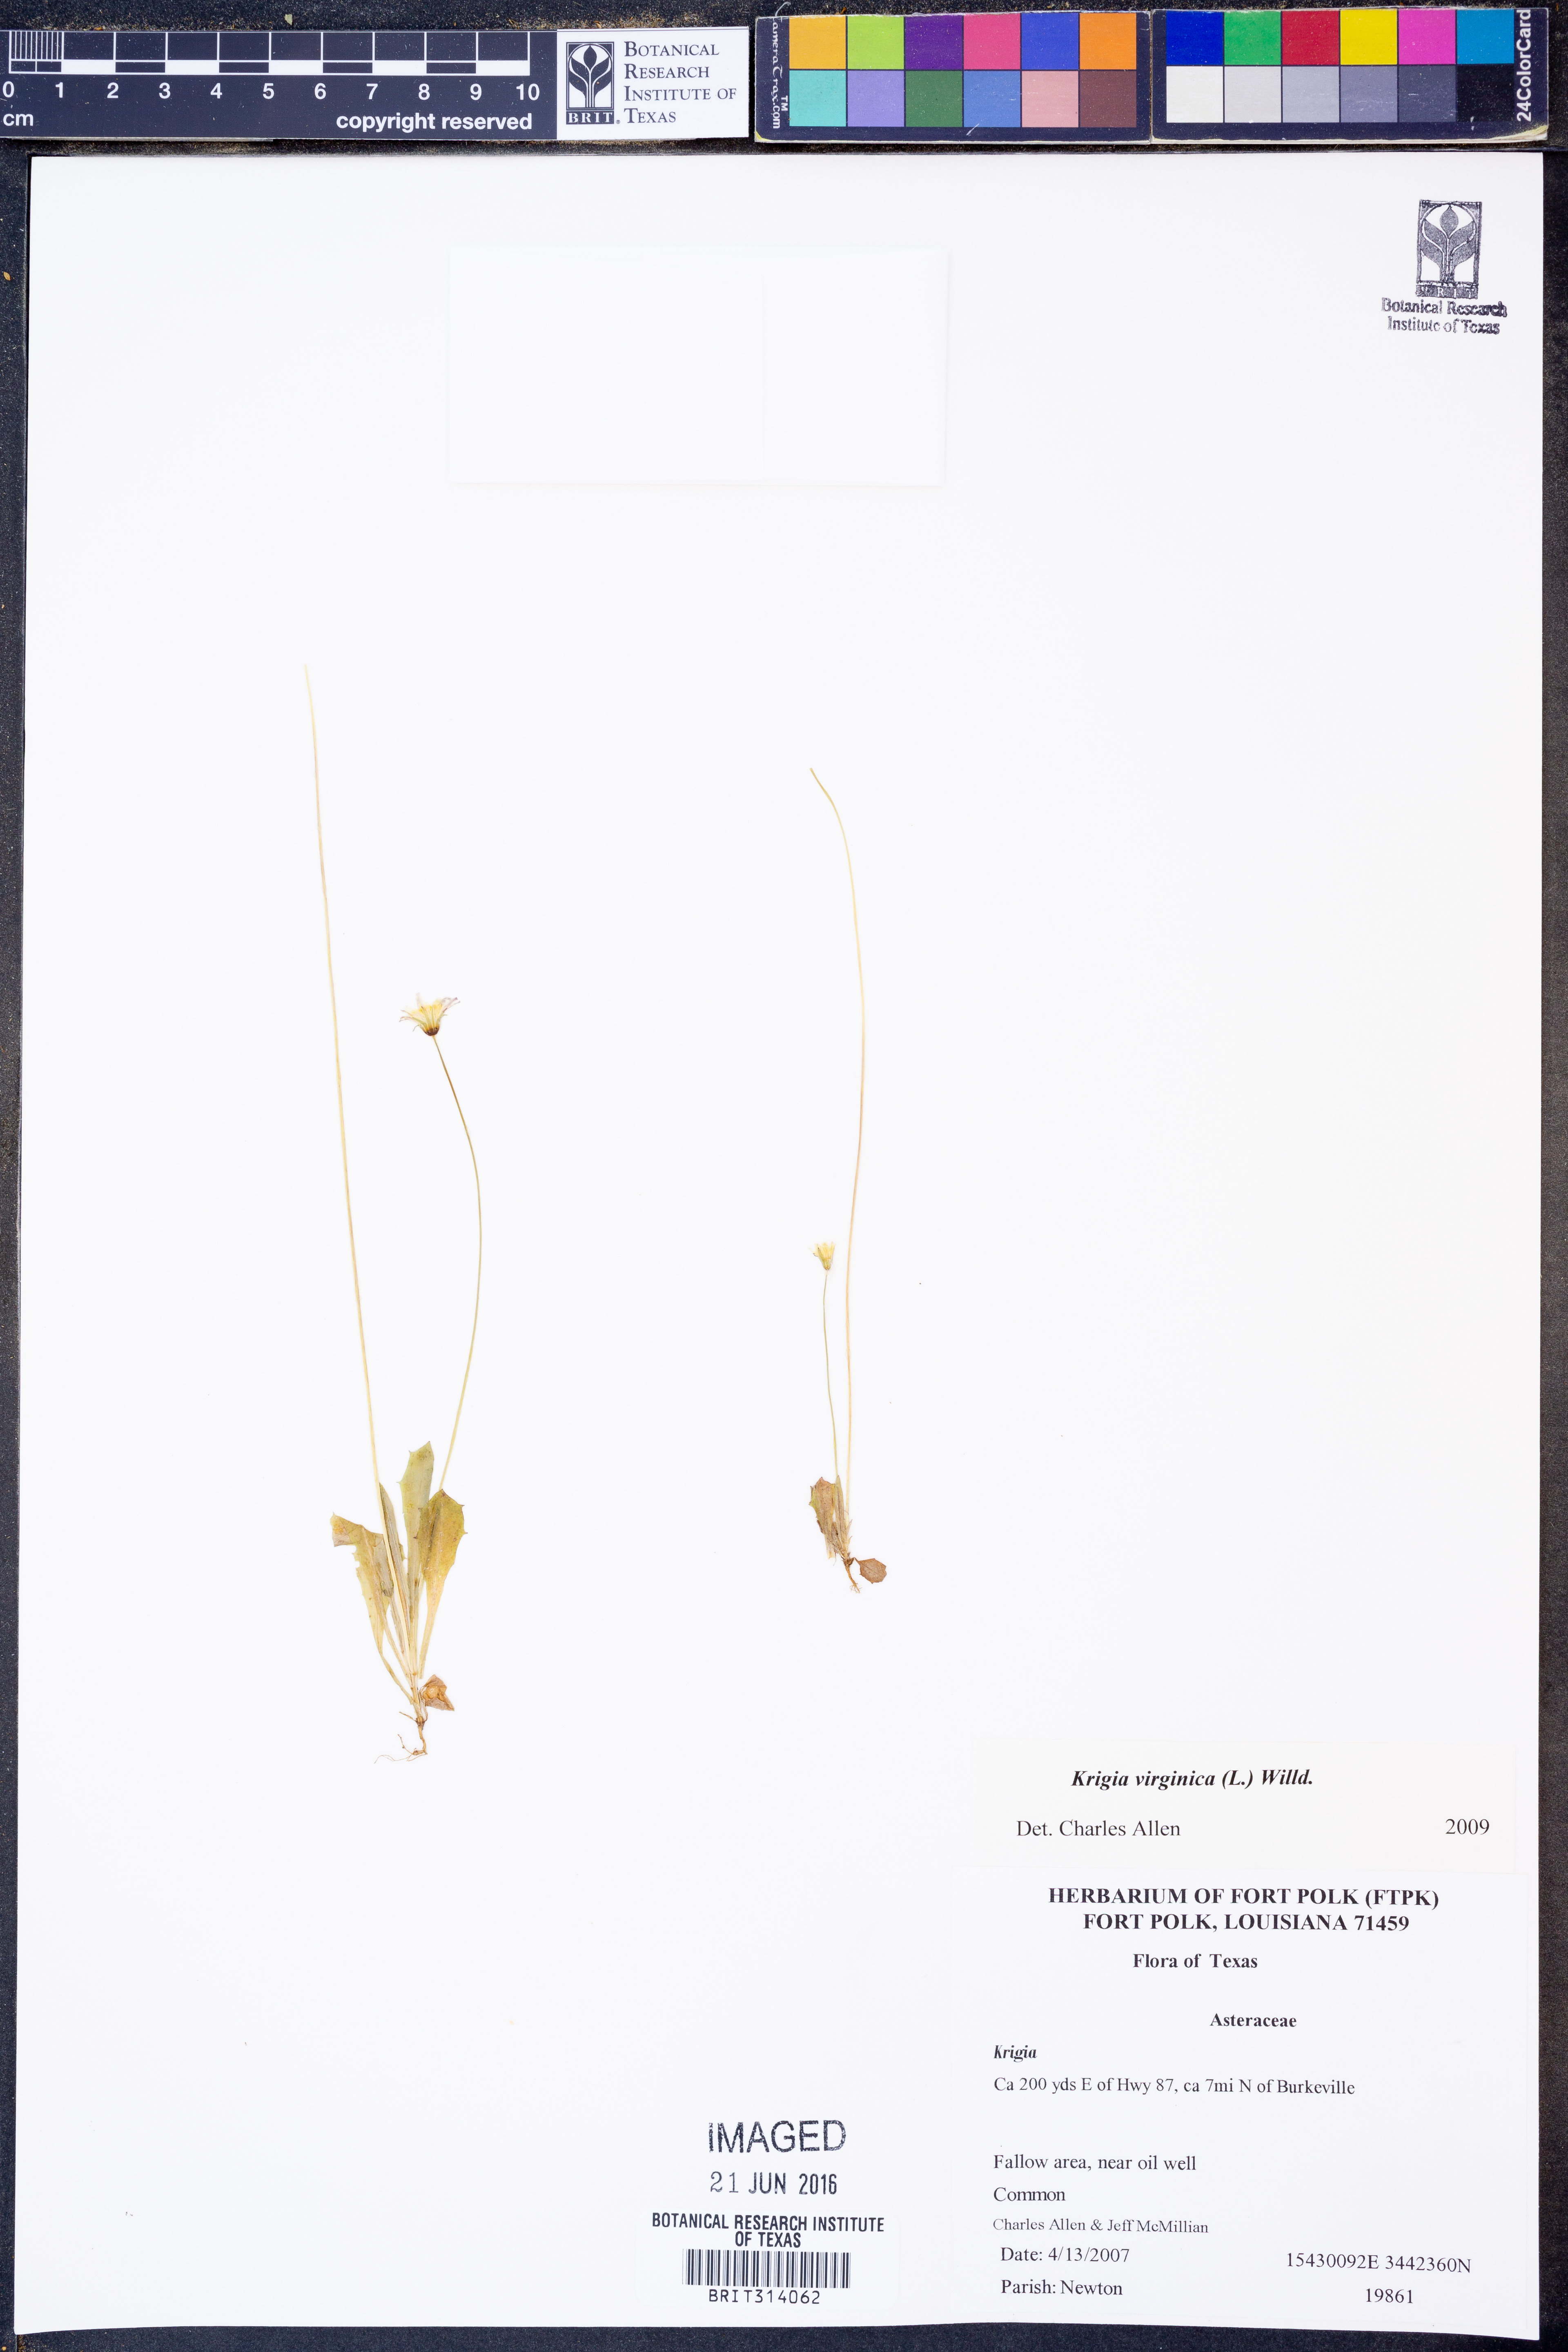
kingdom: Plantae
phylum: Tracheophyta
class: Magnoliopsida
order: Asterales
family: Asteraceae
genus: Krigia
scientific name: Krigia virginica
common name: Virginia dwarf-dandelion
